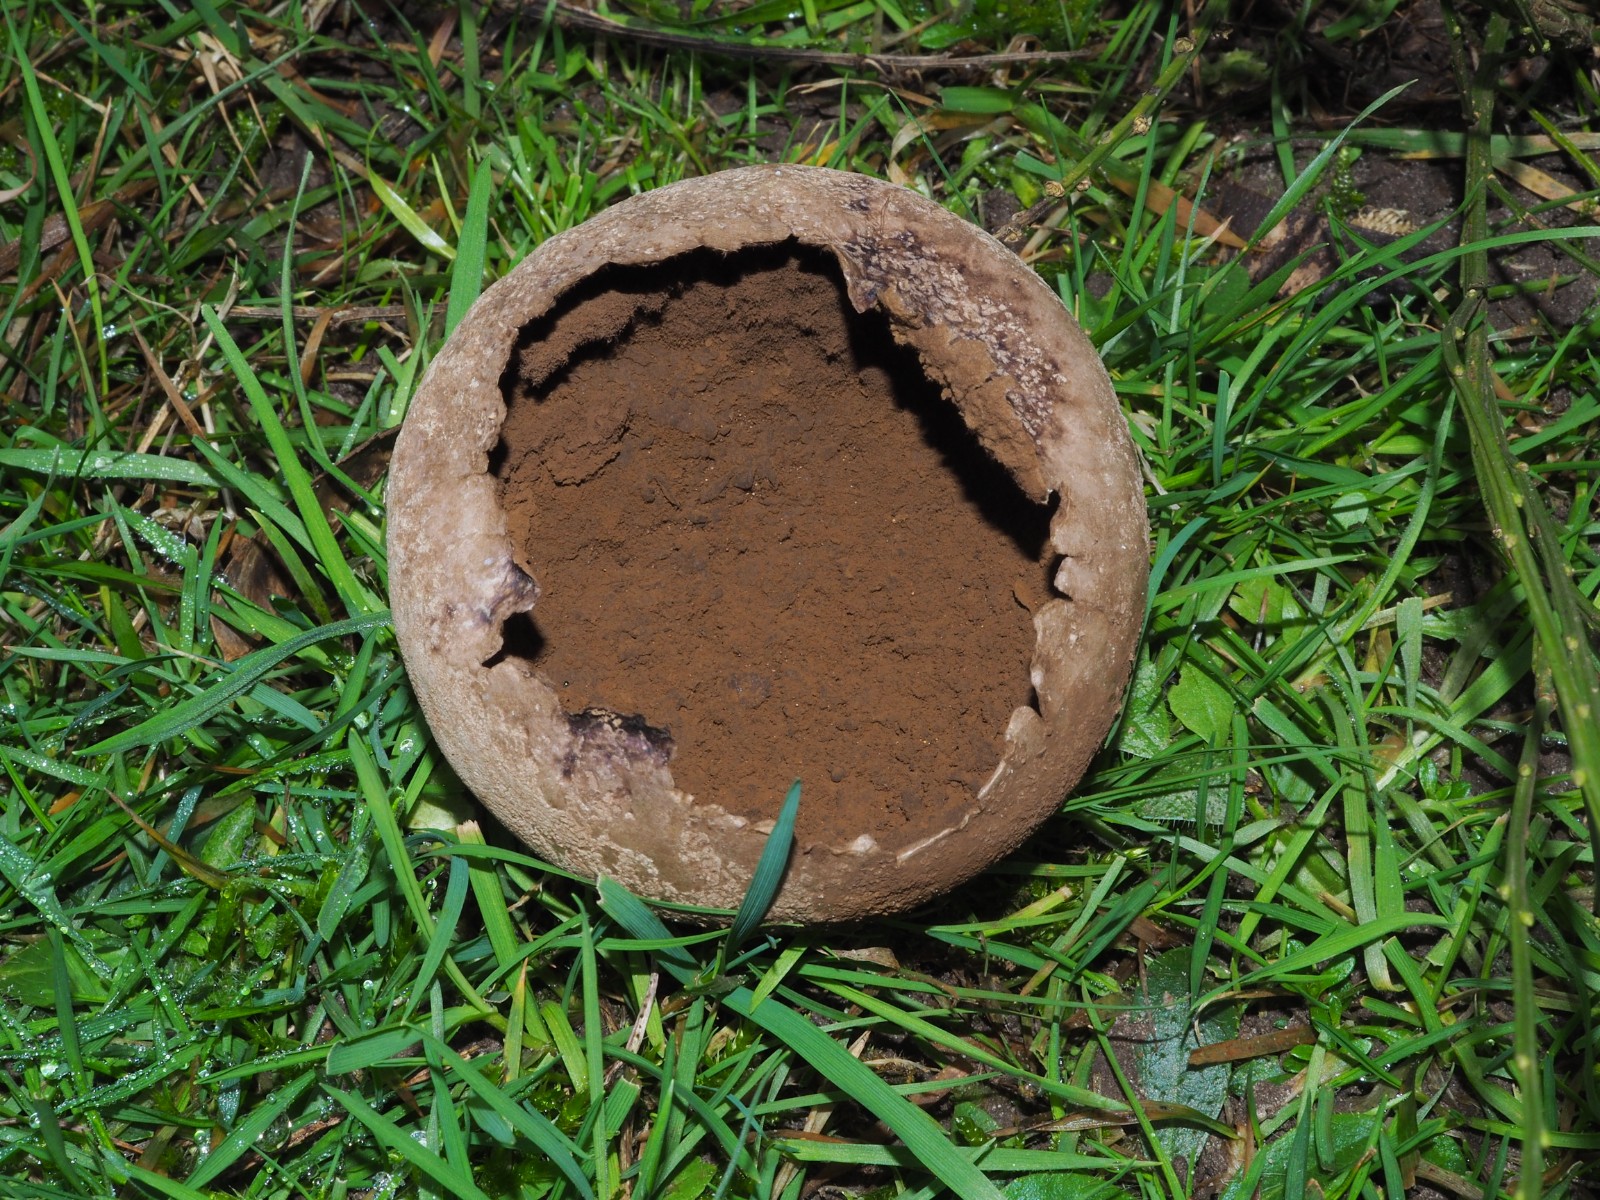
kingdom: Fungi
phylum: Basidiomycota
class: Agaricomycetes
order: Agaricales
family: Lycoperdaceae
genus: Bovistella
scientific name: Bovistella utriformis
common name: skællet støvbold
